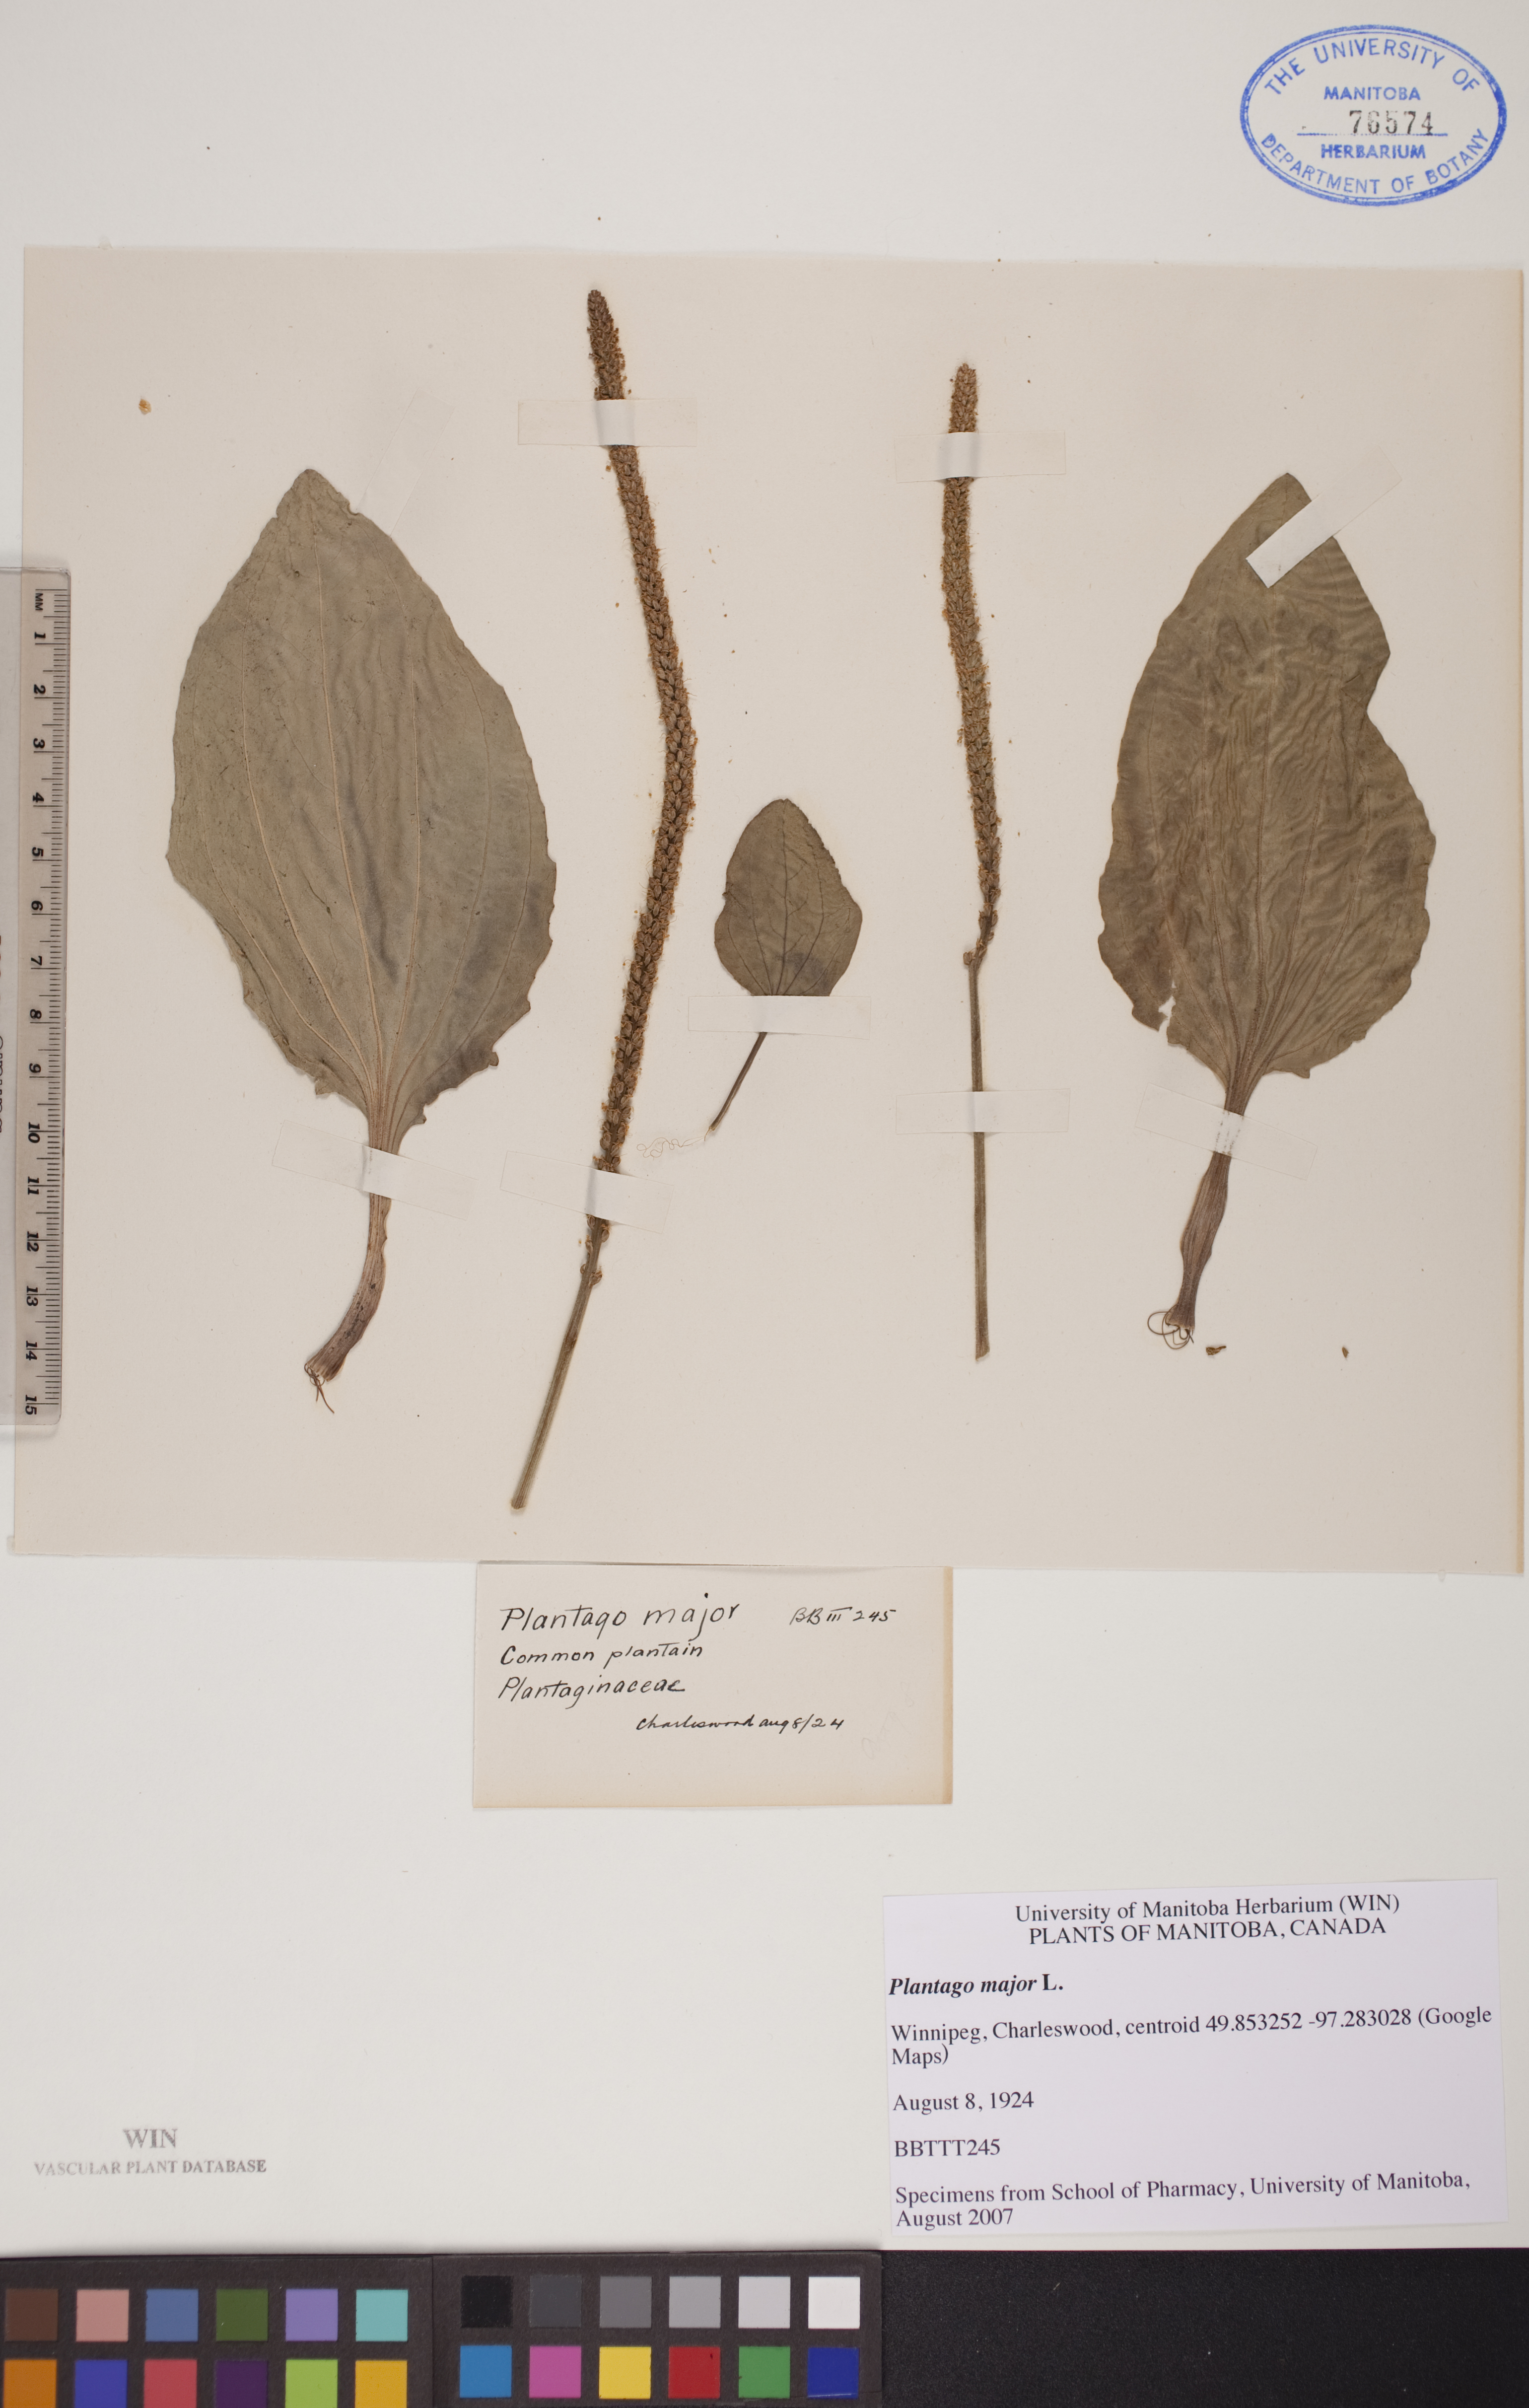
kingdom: Plantae
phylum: Tracheophyta
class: Magnoliopsida
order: Lamiales
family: Plantaginaceae
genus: Plantago
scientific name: Plantago major
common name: Common plantain
